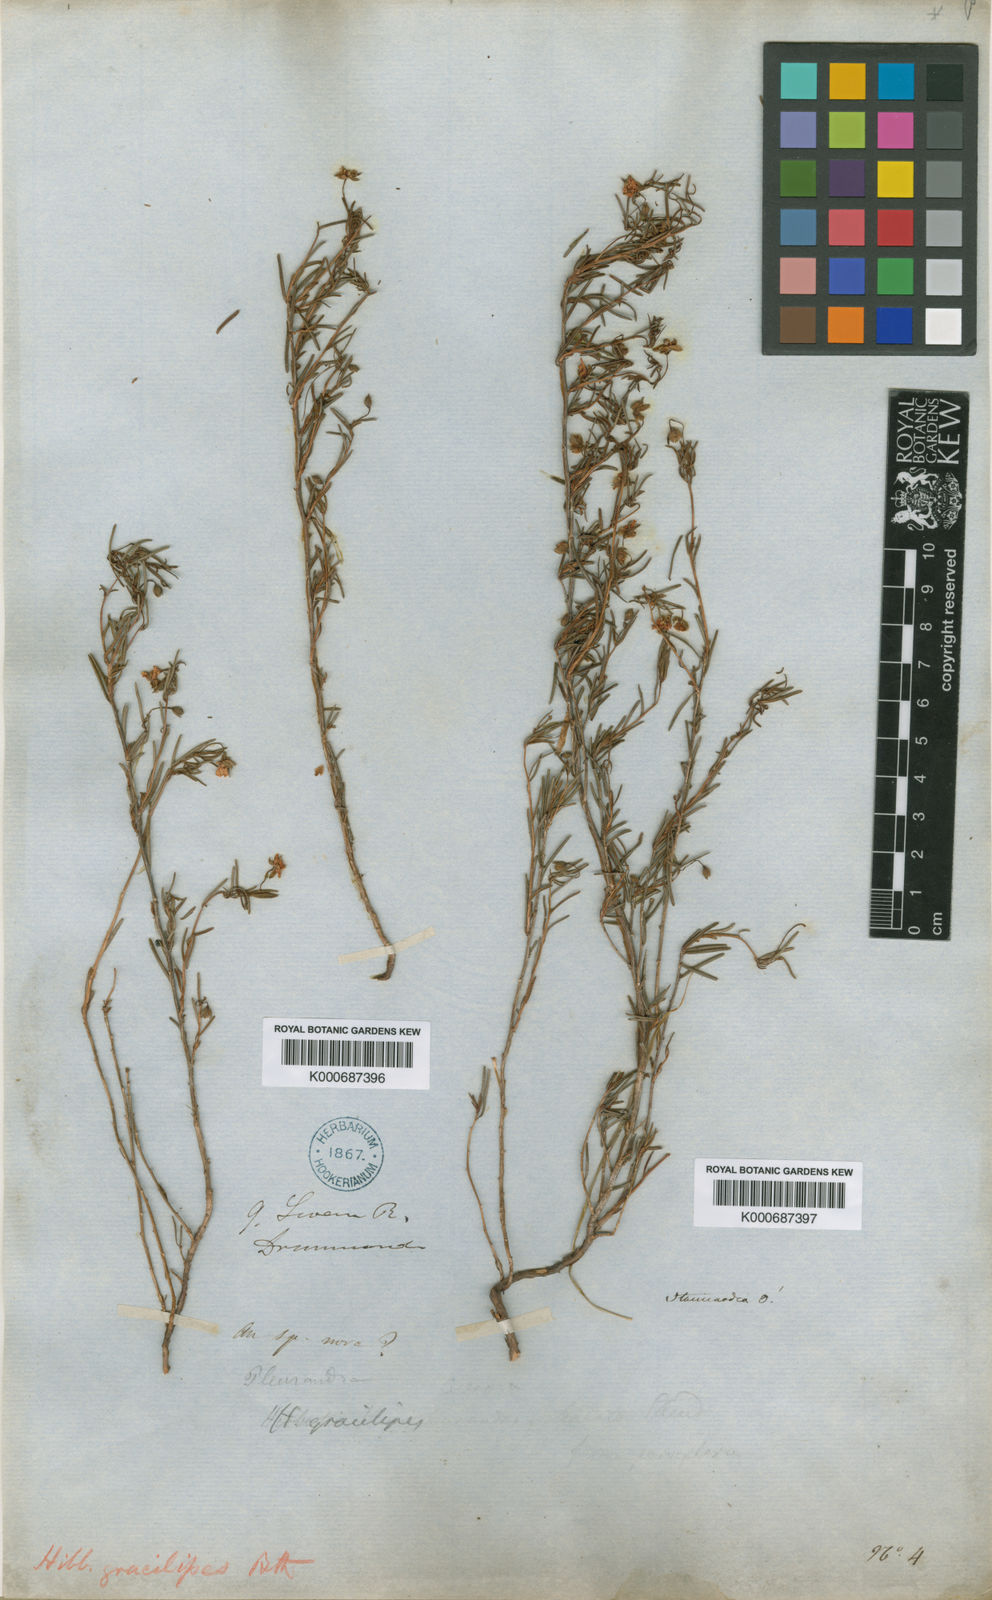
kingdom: Plantae
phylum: Tracheophyta
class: Magnoliopsida
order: Dilleniales
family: Dilleniaceae
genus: Hibbertia
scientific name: Hibbertia gracilipes
